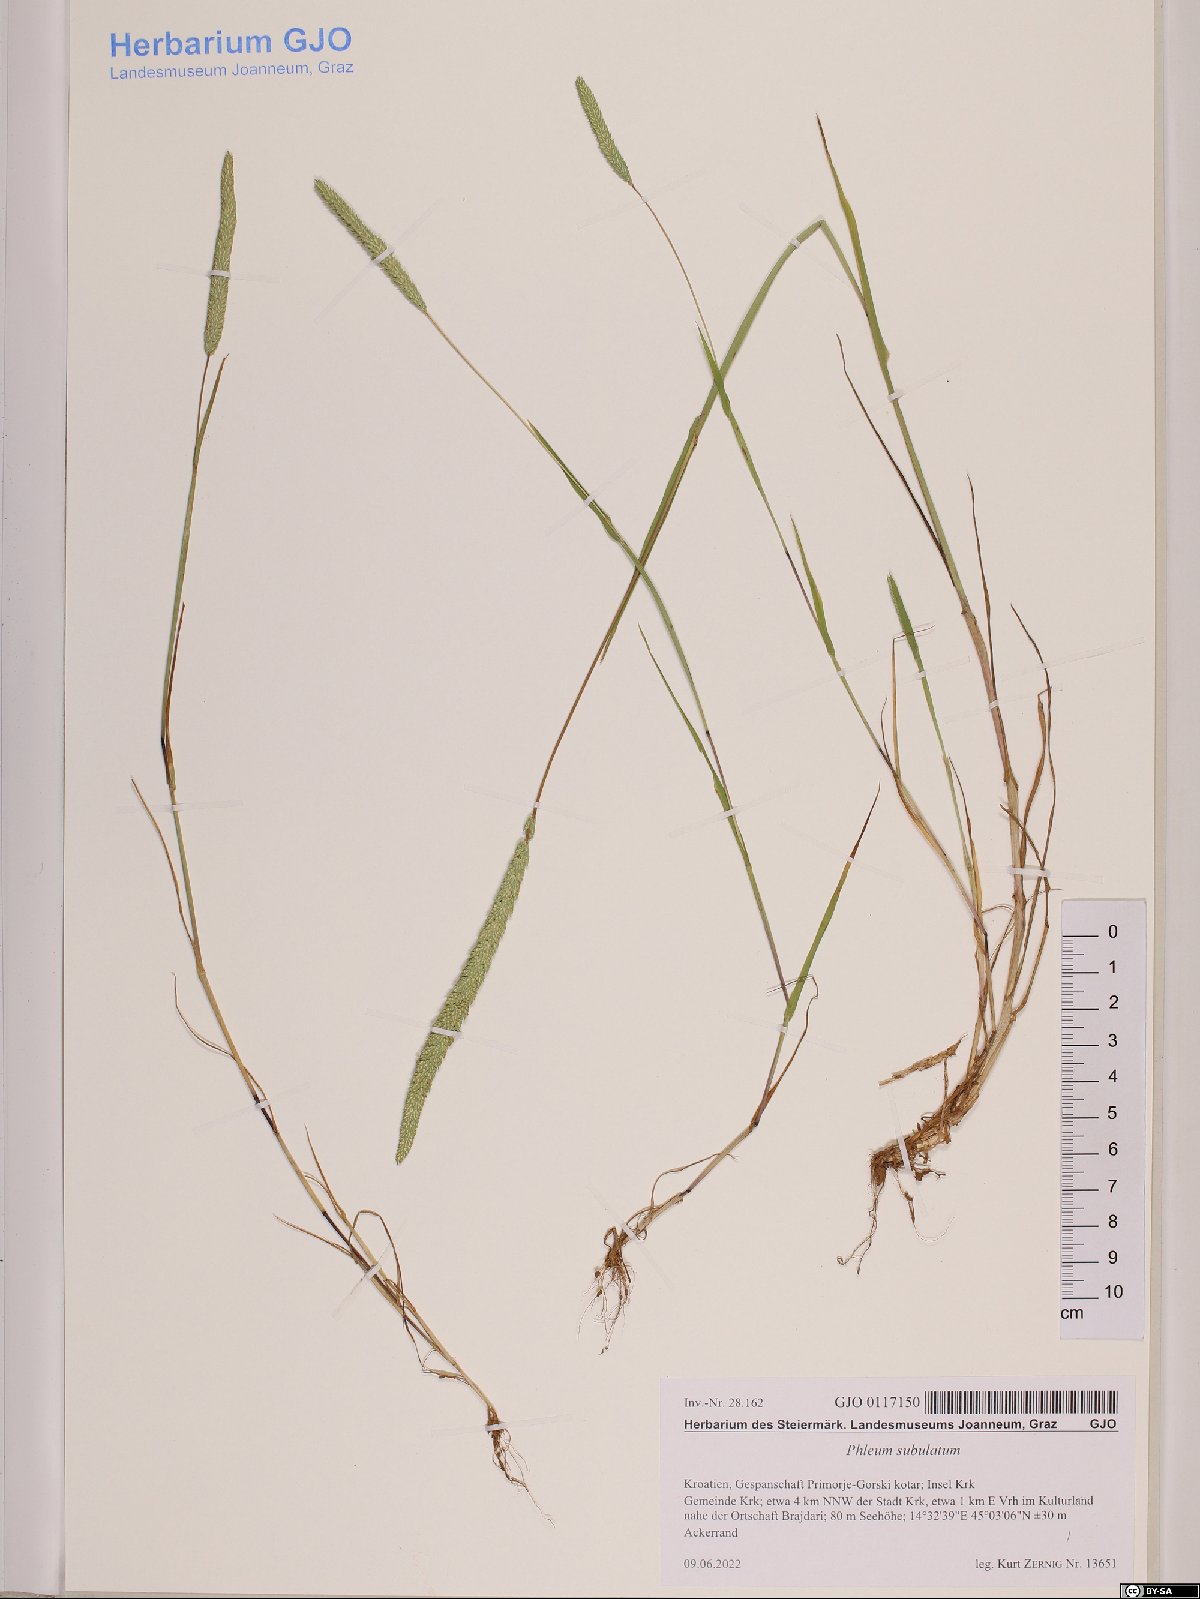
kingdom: Plantae
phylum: Tracheophyta
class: Liliopsida
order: Poales
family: Poaceae
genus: Phleum
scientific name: Phleum subulatum
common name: Italian timothy
